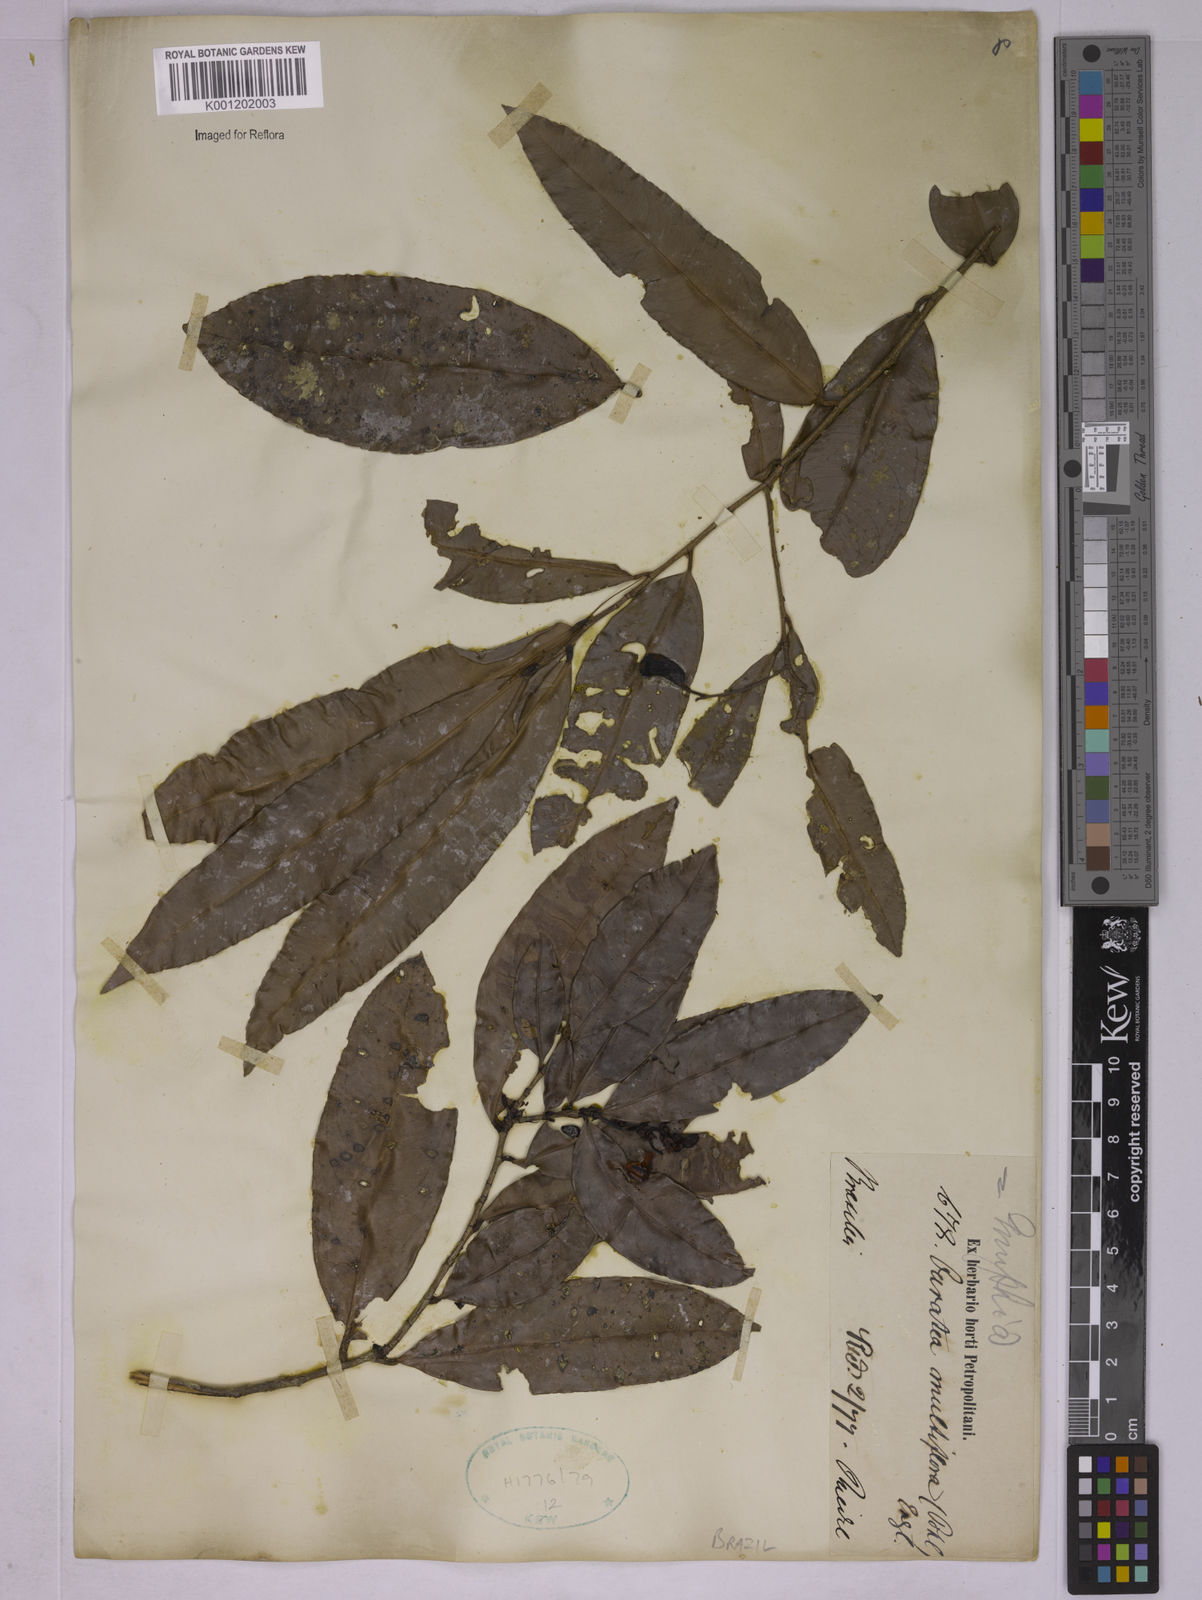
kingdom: Plantae
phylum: Tracheophyta
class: Magnoliopsida
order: Malpighiales
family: Ochnaceae
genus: Ouratea
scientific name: Ouratea multiflora
